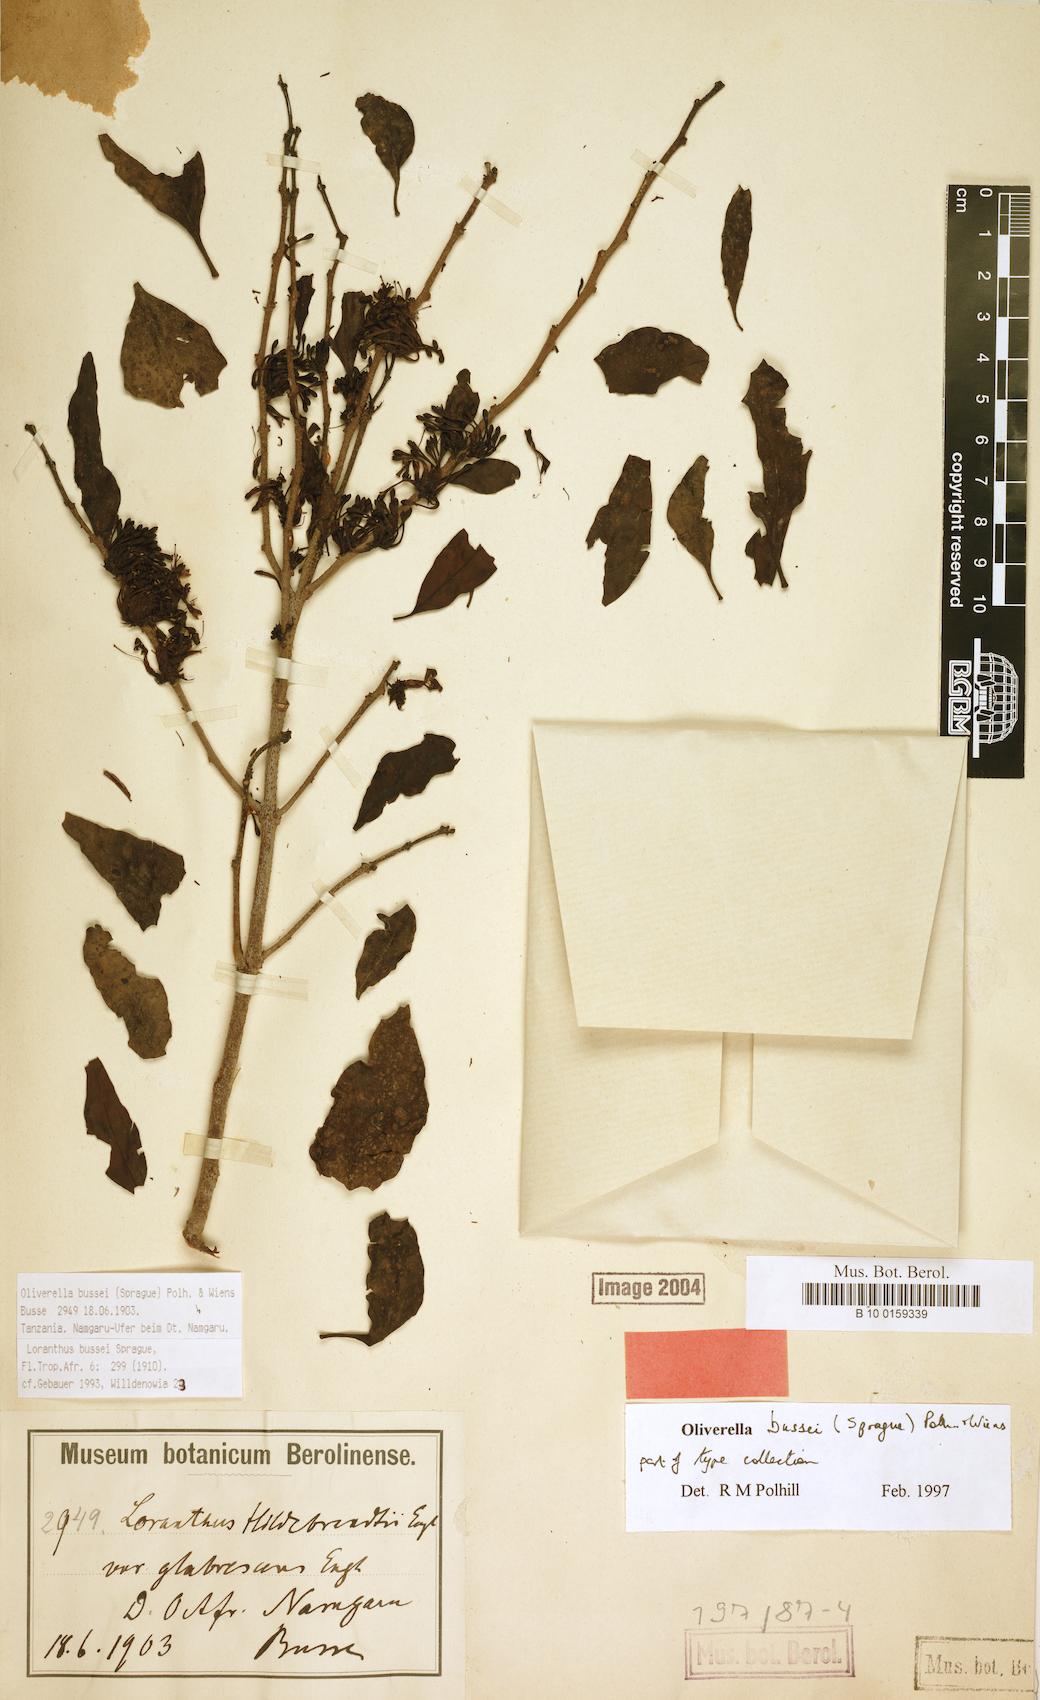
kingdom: Plantae
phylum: Tracheophyta
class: Magnoliopsida
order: Santalales
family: Loranthaceae
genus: Oliverella
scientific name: Oliverella bussei
